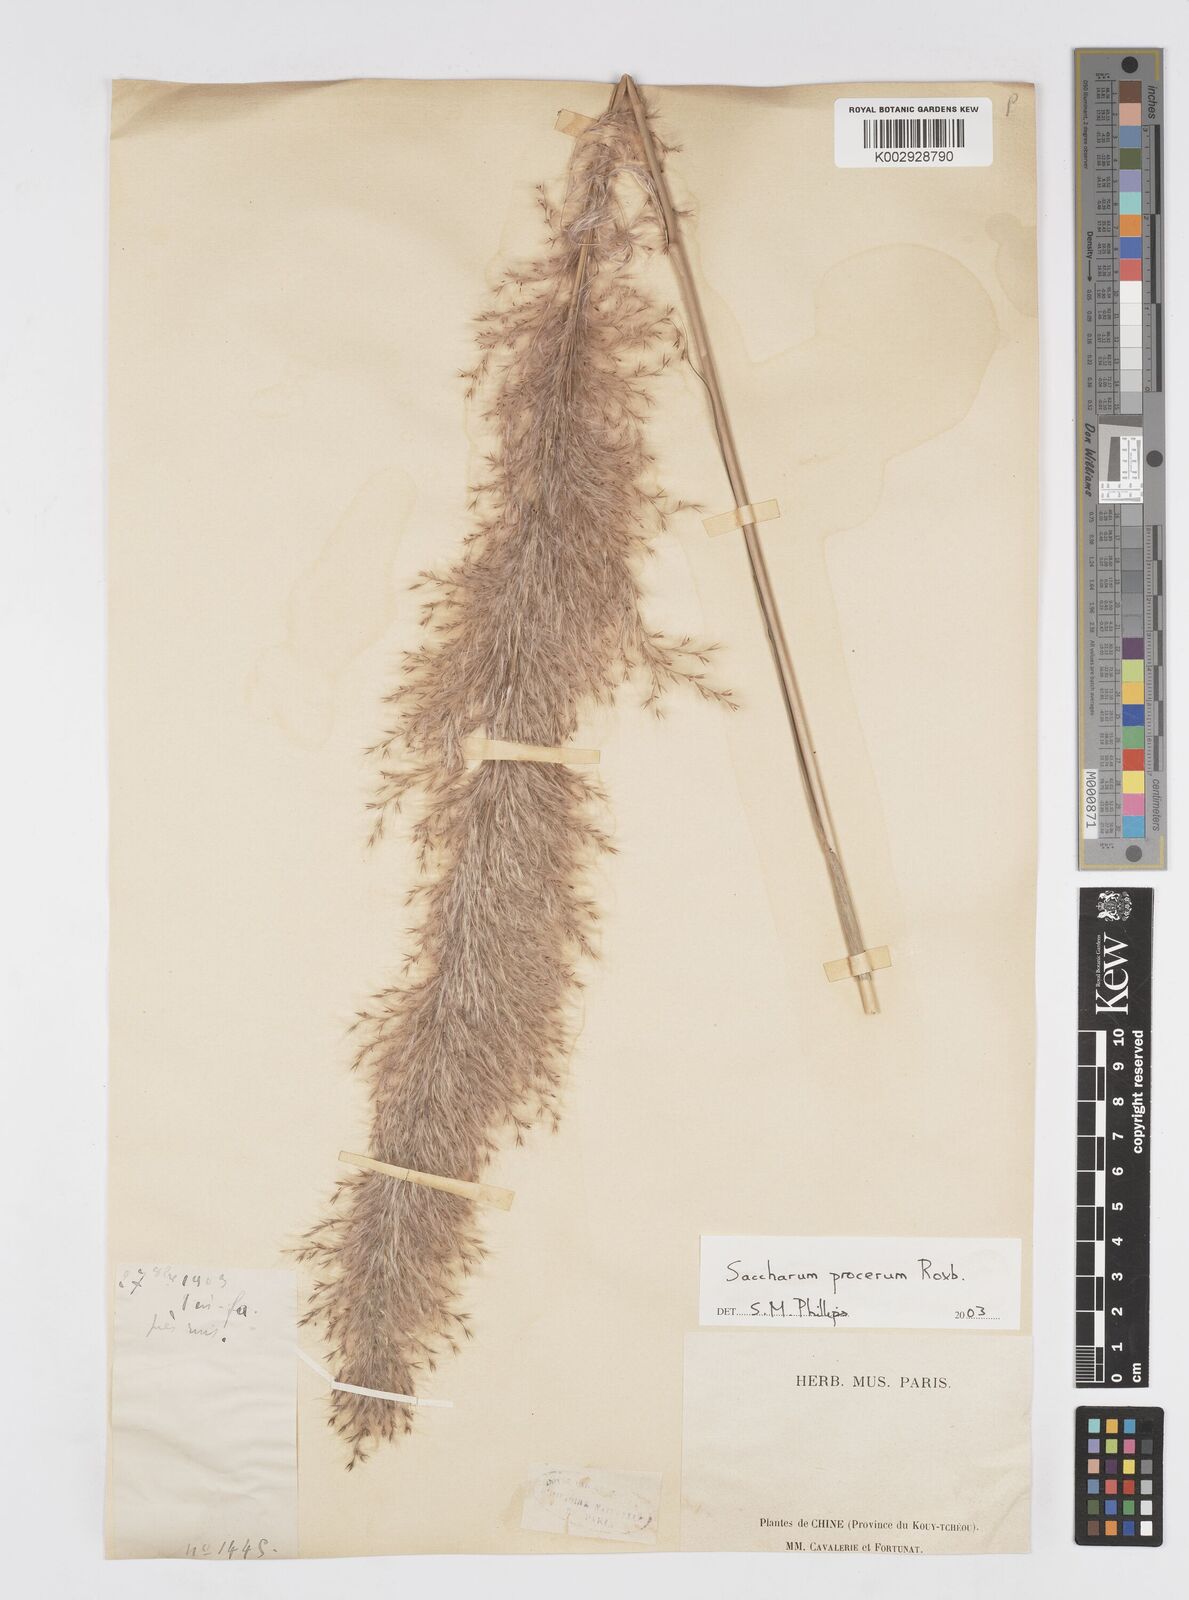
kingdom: Plantae
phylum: Tracheophyta
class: Liliopsida
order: Poales
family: Poaceae
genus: Tripidium
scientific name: Tripidium procerum
